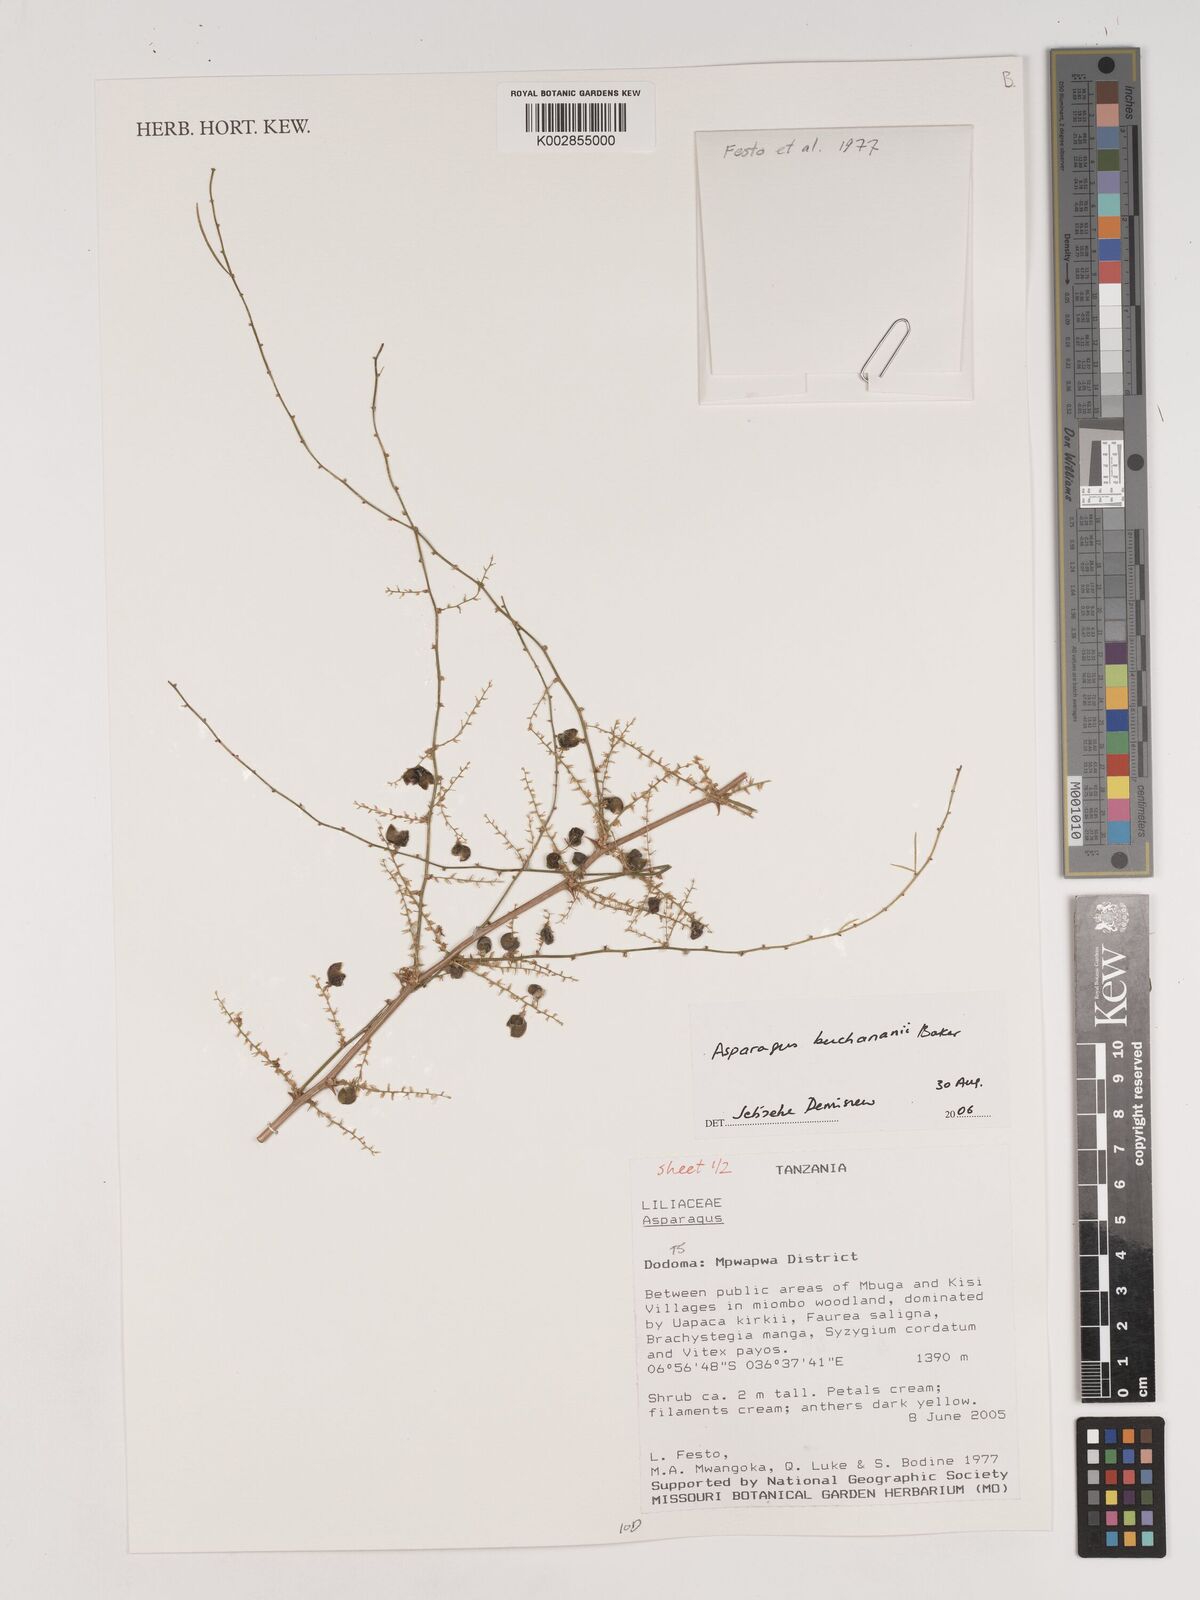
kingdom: Plantae
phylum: Tracheophyta
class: Liliopsida
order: Asparagales
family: Asparagaceae
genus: Asparagus
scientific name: Asparagus buchananii
